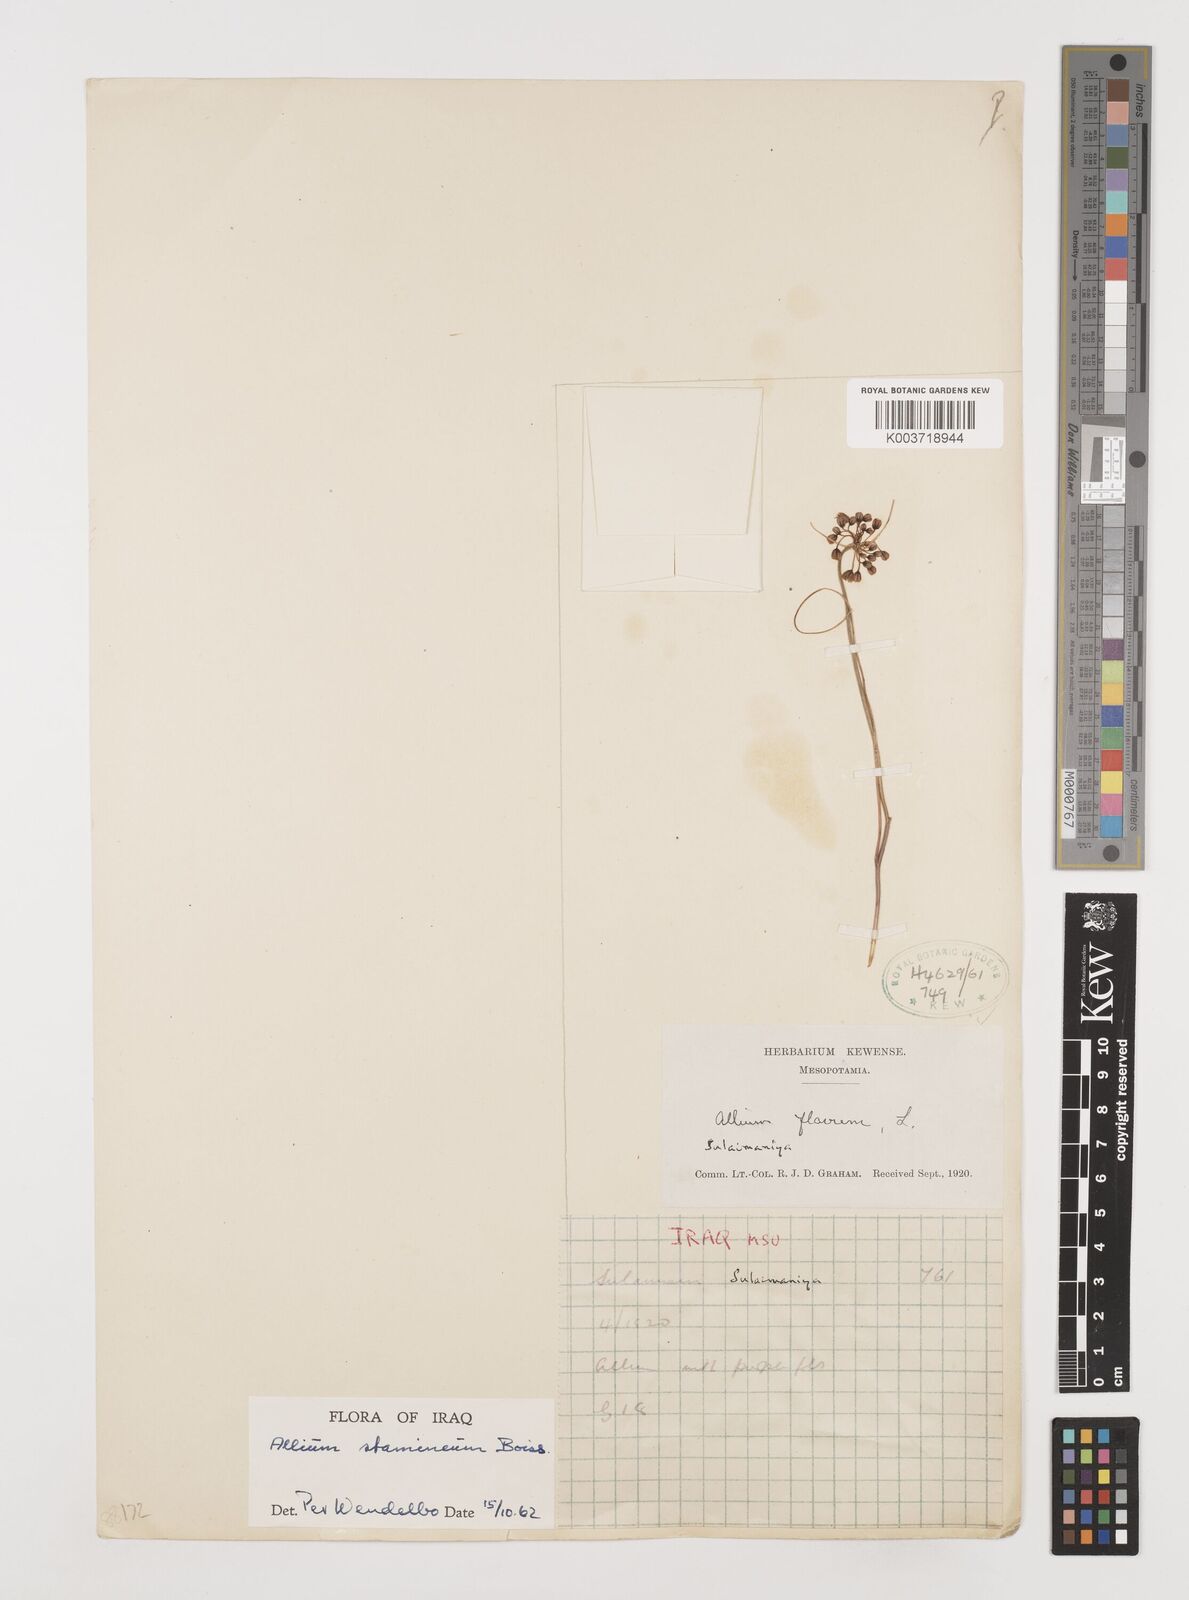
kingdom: Plantae
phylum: Tracheophyta
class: Liliopsida
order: Asparagales
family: Amaryllidaceae
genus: Allium
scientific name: Allium stamineum
